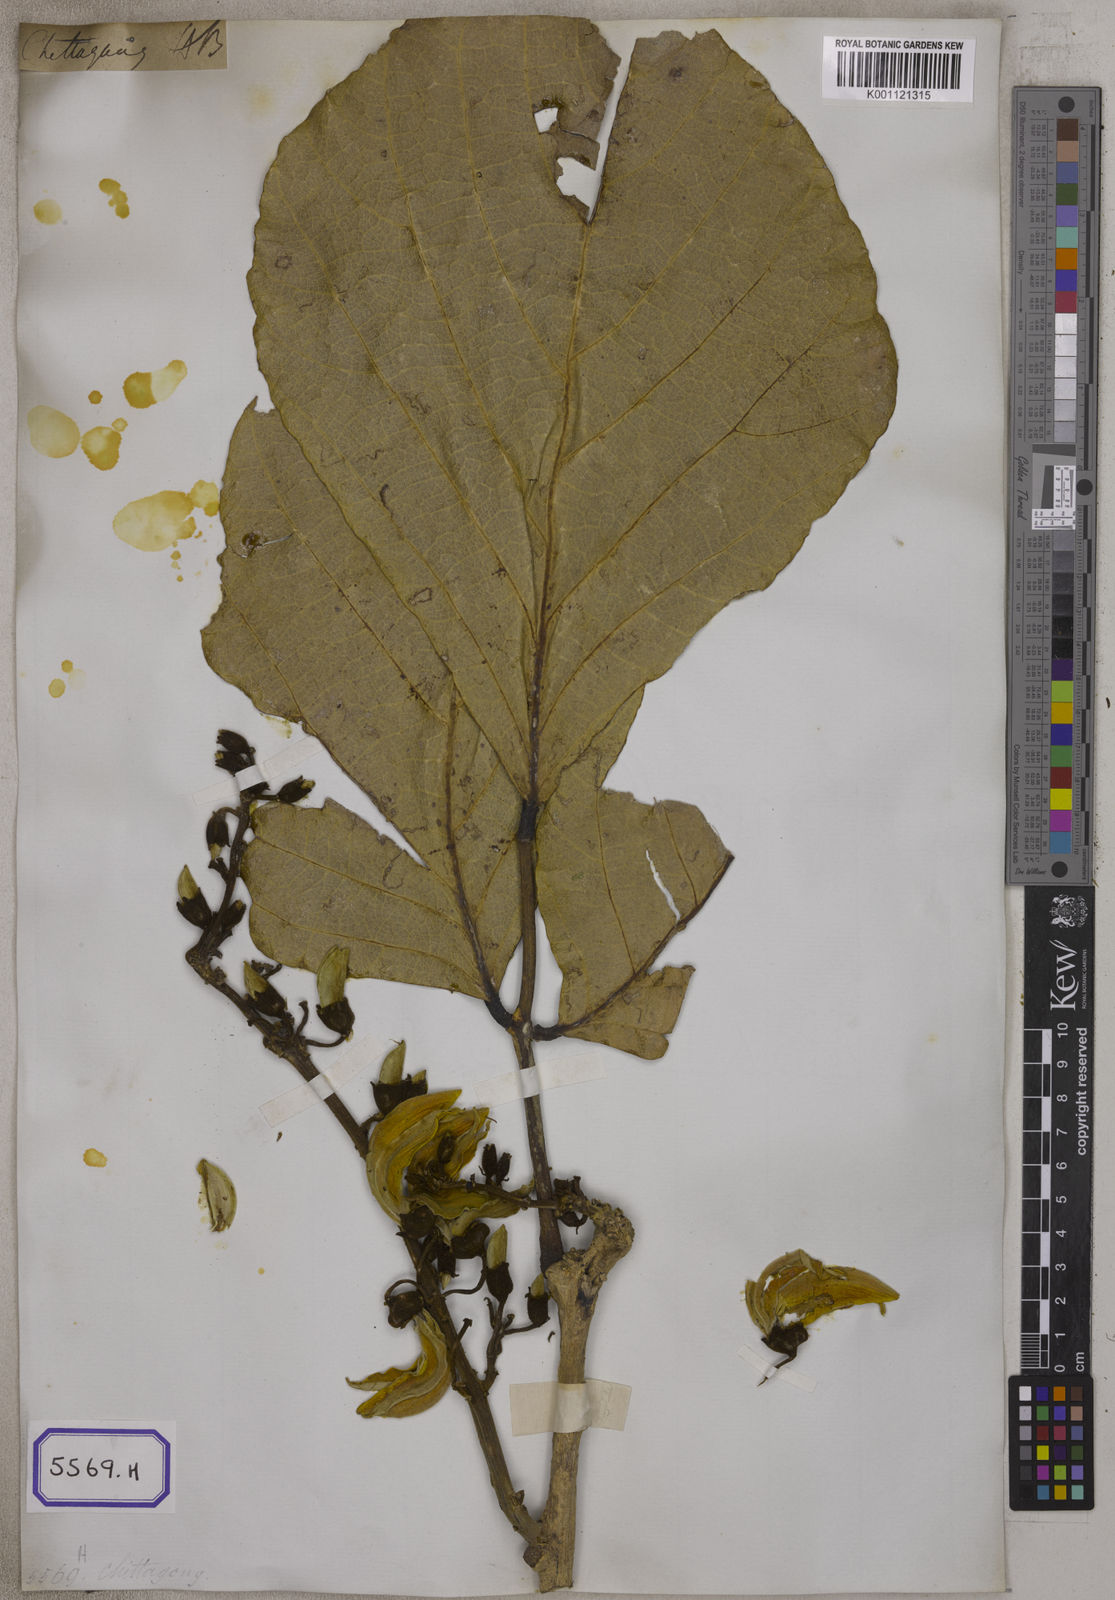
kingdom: Plantae
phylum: Tracheophyta
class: Magnoliopsida
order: Fabales
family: Fabaceae
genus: Butea
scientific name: Butea
